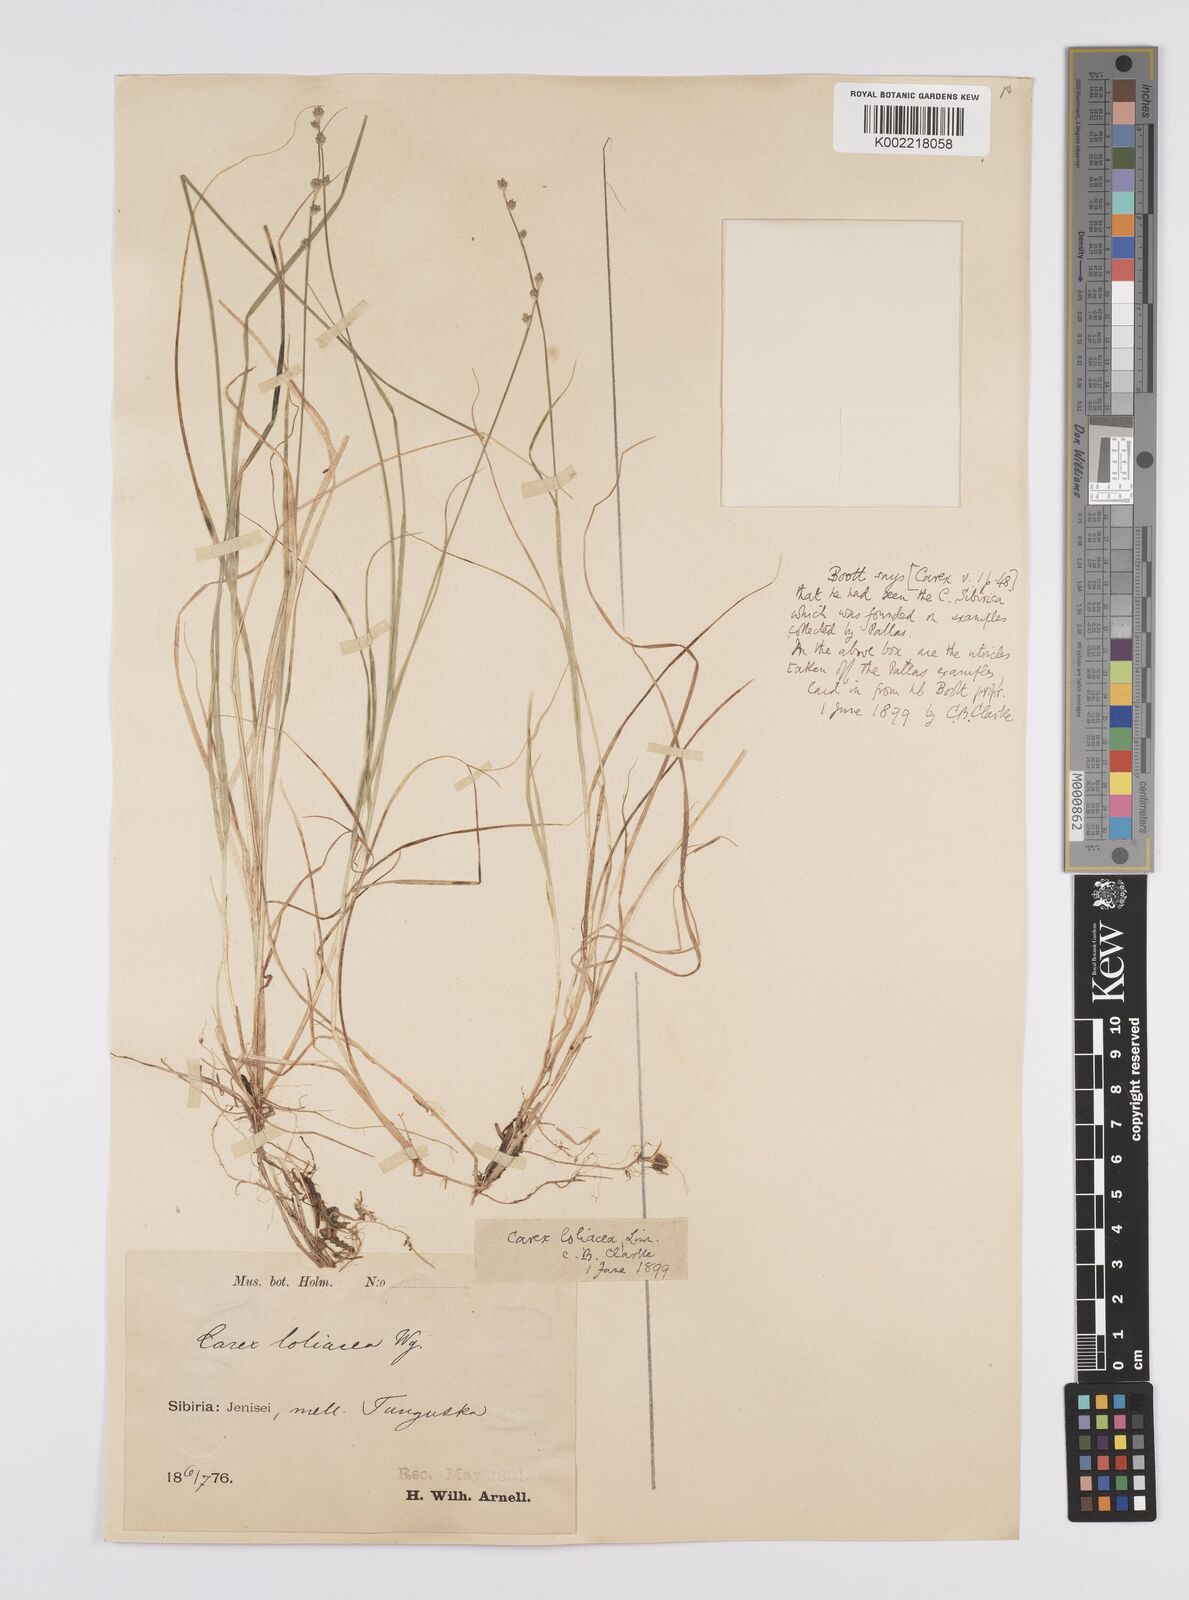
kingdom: Plantae
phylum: Tracheophyta
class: Liliopsida
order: Poales
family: Cyperaceae
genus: Carex
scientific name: Carex loliacea
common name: Ryegrass sedge
